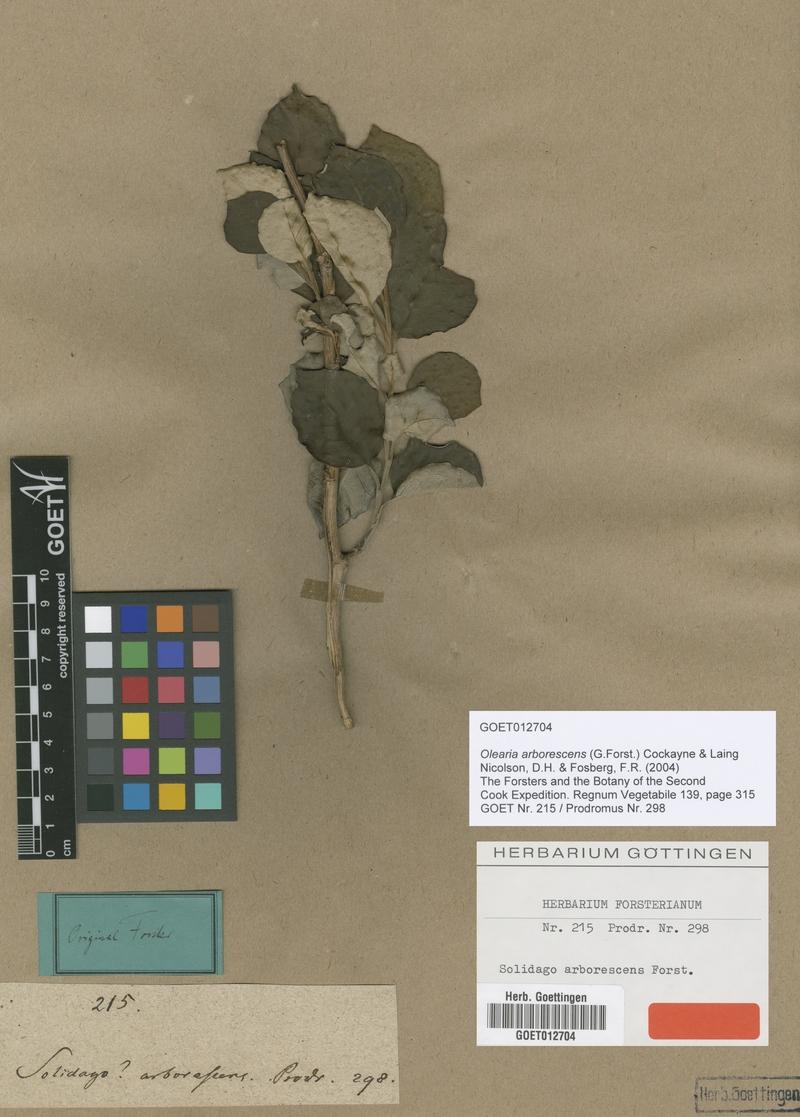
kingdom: Plantae
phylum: Tracheophyta
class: Magnoliopsida
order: Asterales
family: Asteraceae
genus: Olearia
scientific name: Olearia arborescens
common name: Glossy tree daisy
